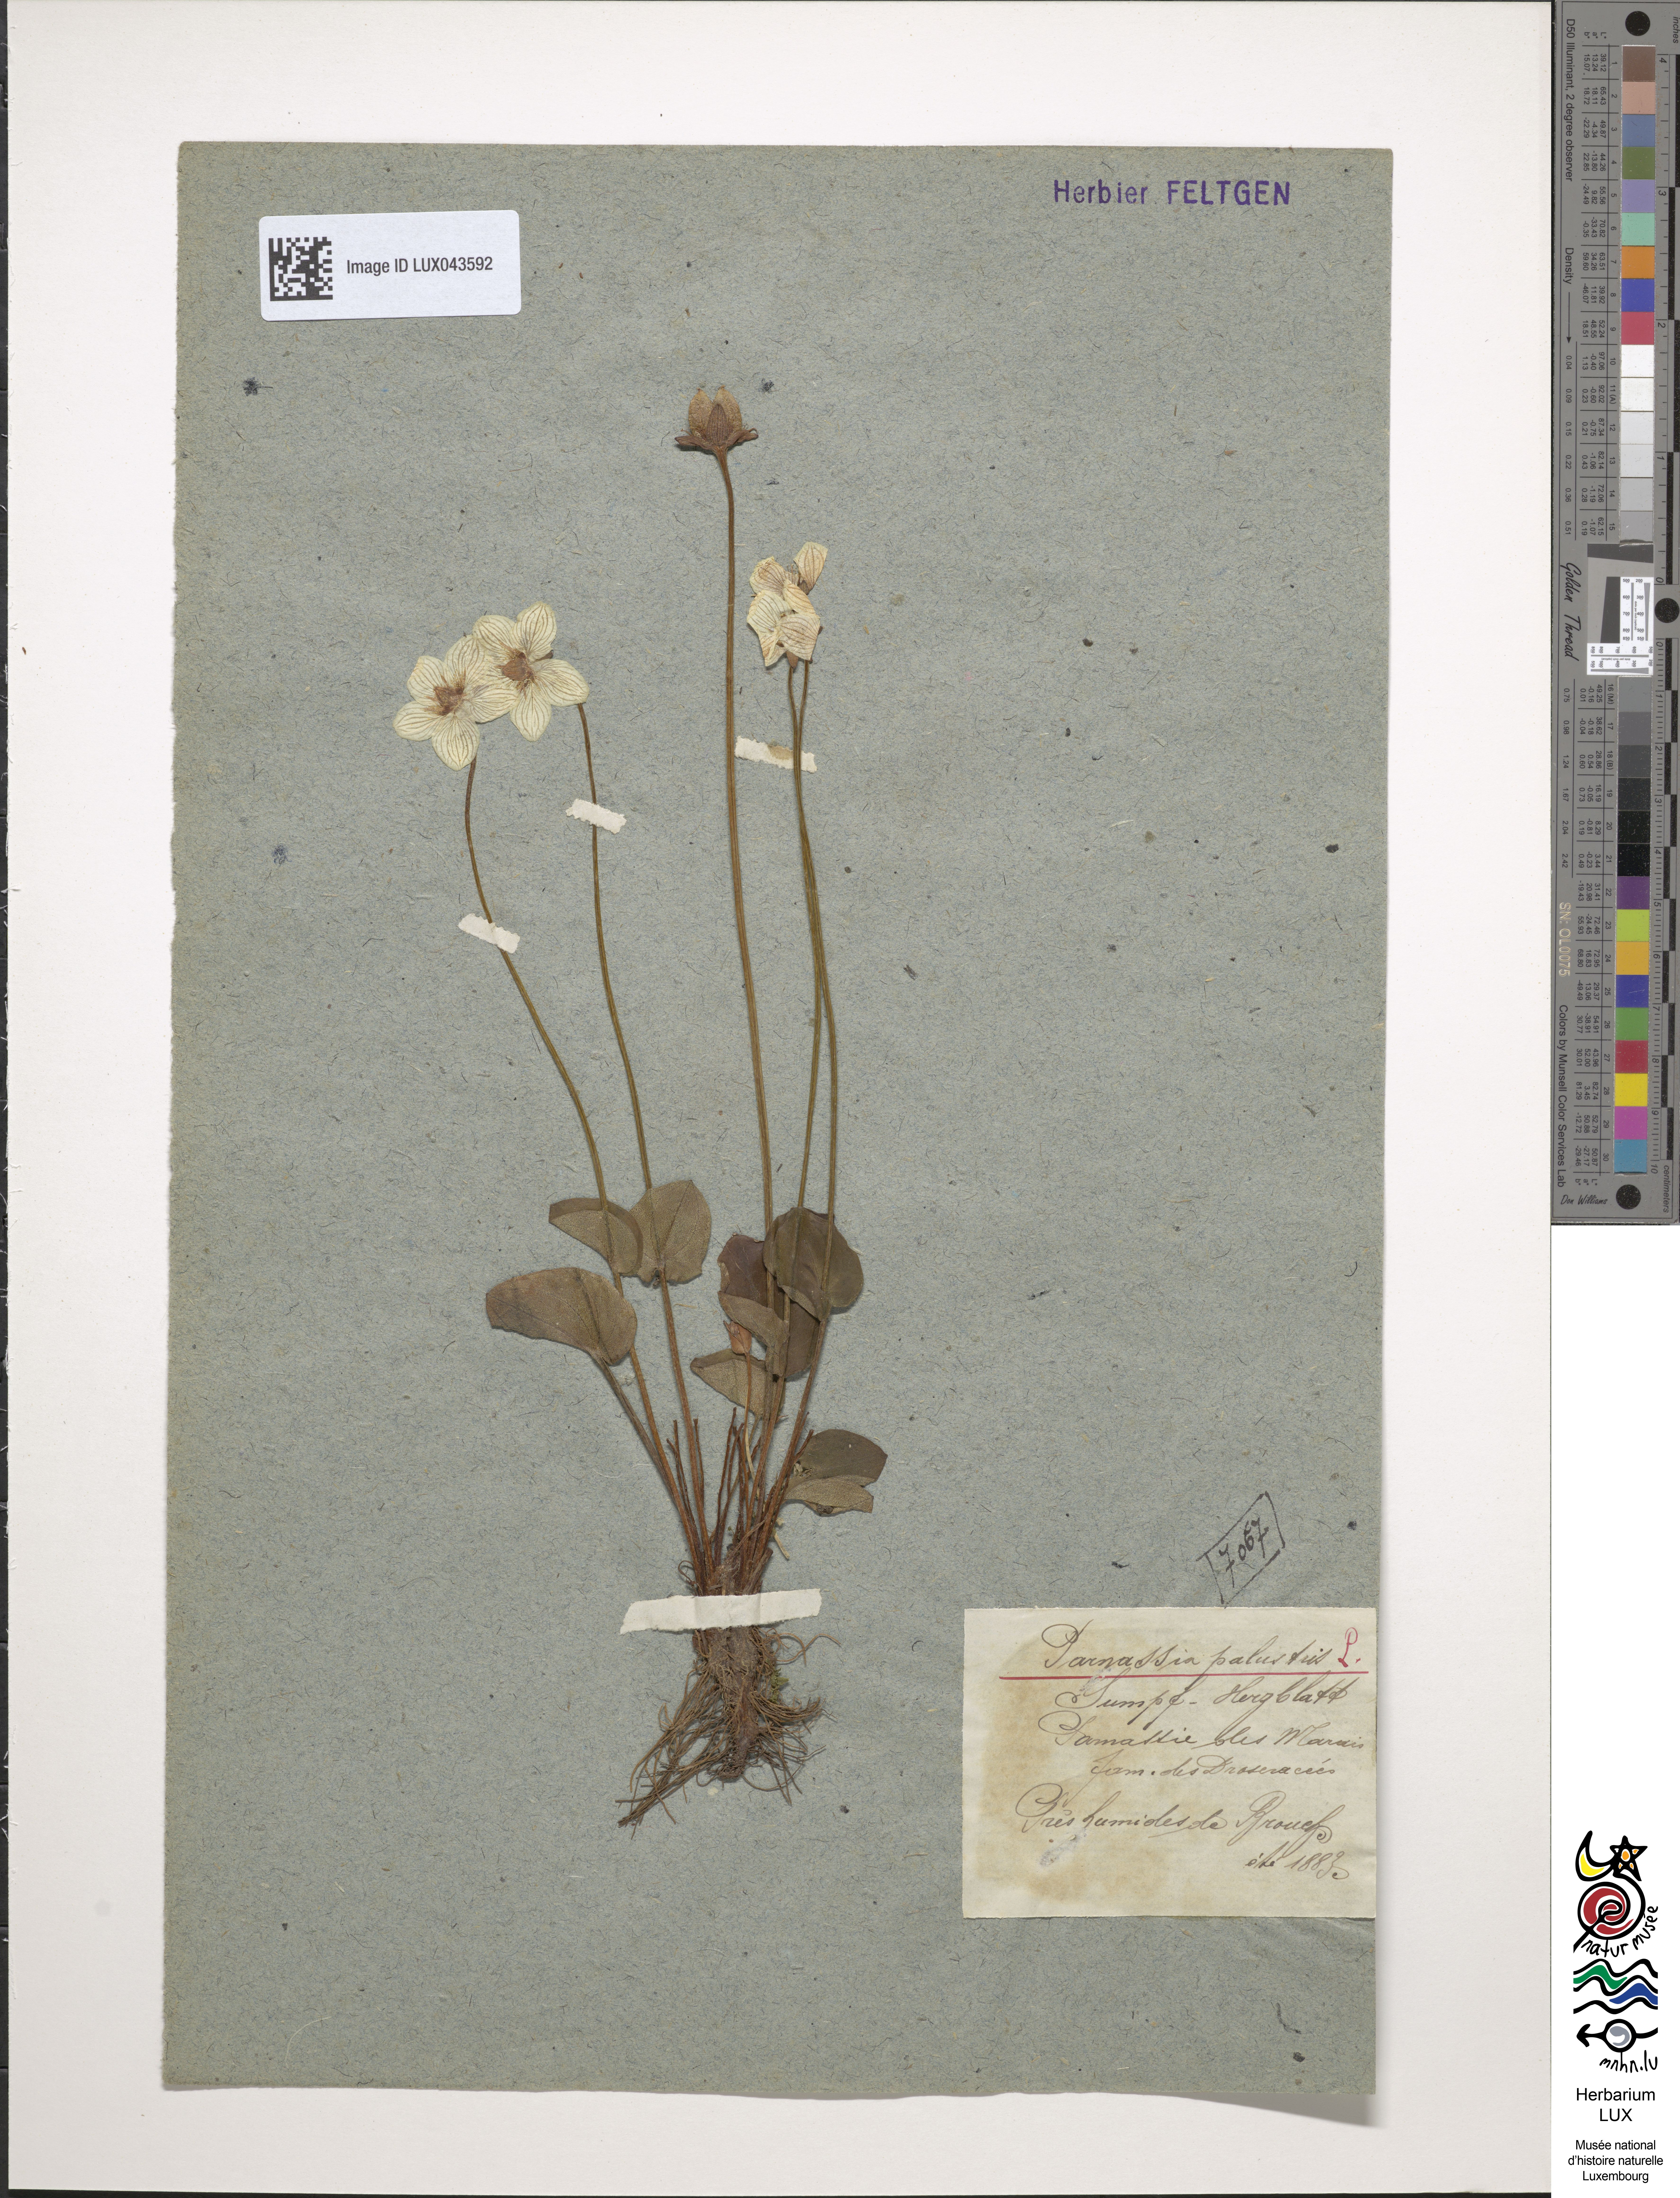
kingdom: Plantae
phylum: Tracheophyta
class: Magnoliopsida
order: Celastrales
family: Parnassiaceae
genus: Parnassia
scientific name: Parnassia palustris
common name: Grass-of-parnassus
